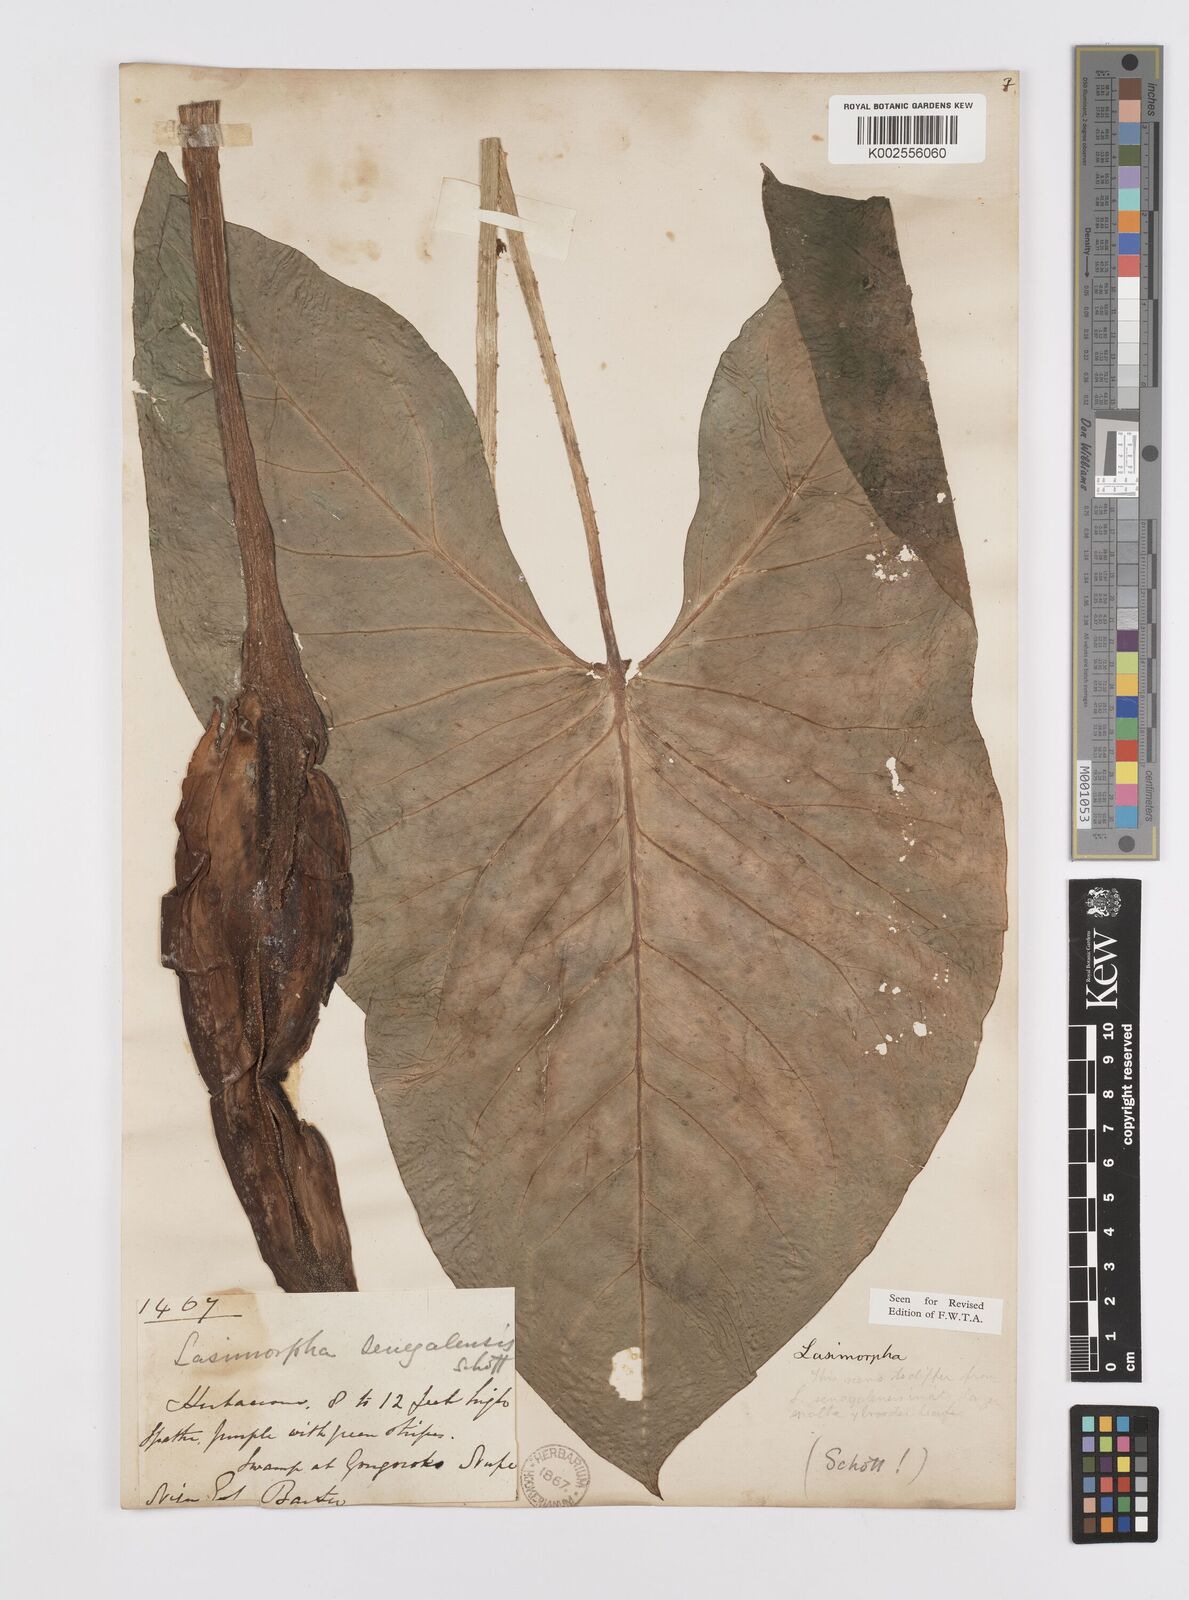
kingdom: Plantae
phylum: Tracheophyta
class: Liliopsida
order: Alismatales
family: Araceae
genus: Lasimorpha
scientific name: Lasimorpha senegalensis
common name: Swamp arum
